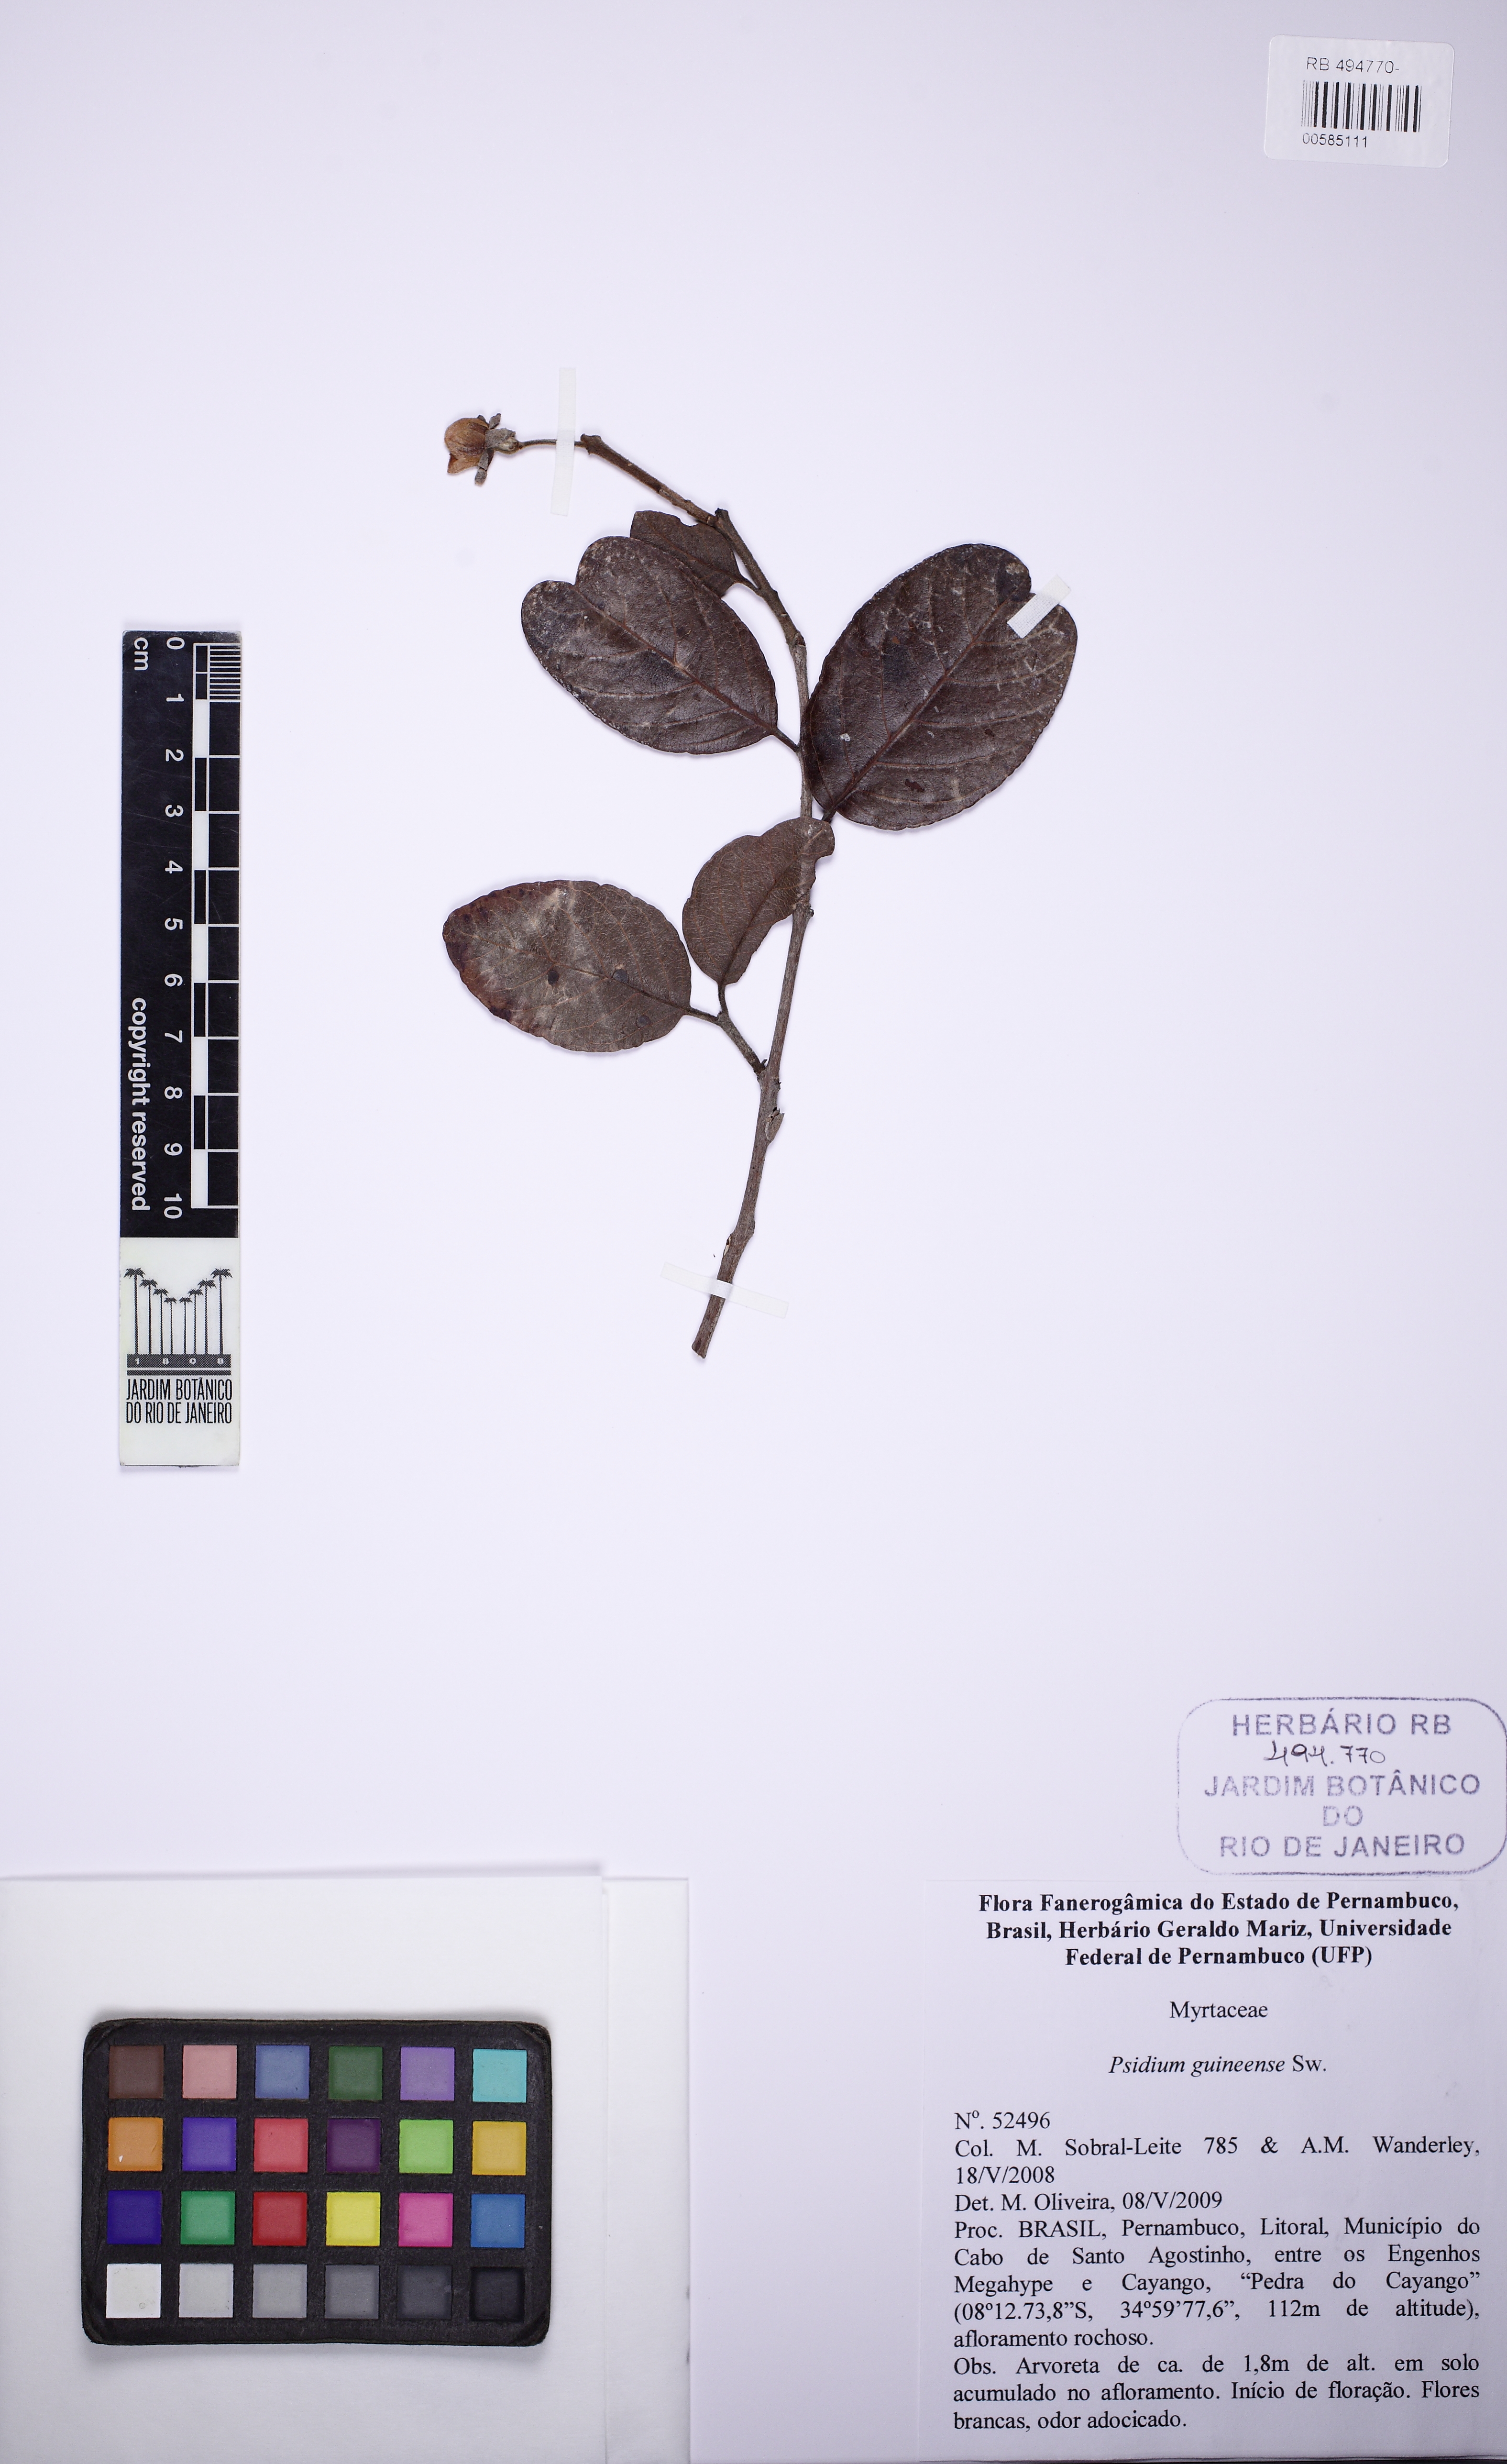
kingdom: Plantae
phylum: Tracheophyta
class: Magnoliopsida
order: Myrtales
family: Myrtaceae
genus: Psidium
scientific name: Psidium guineense
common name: Brazilian guava
